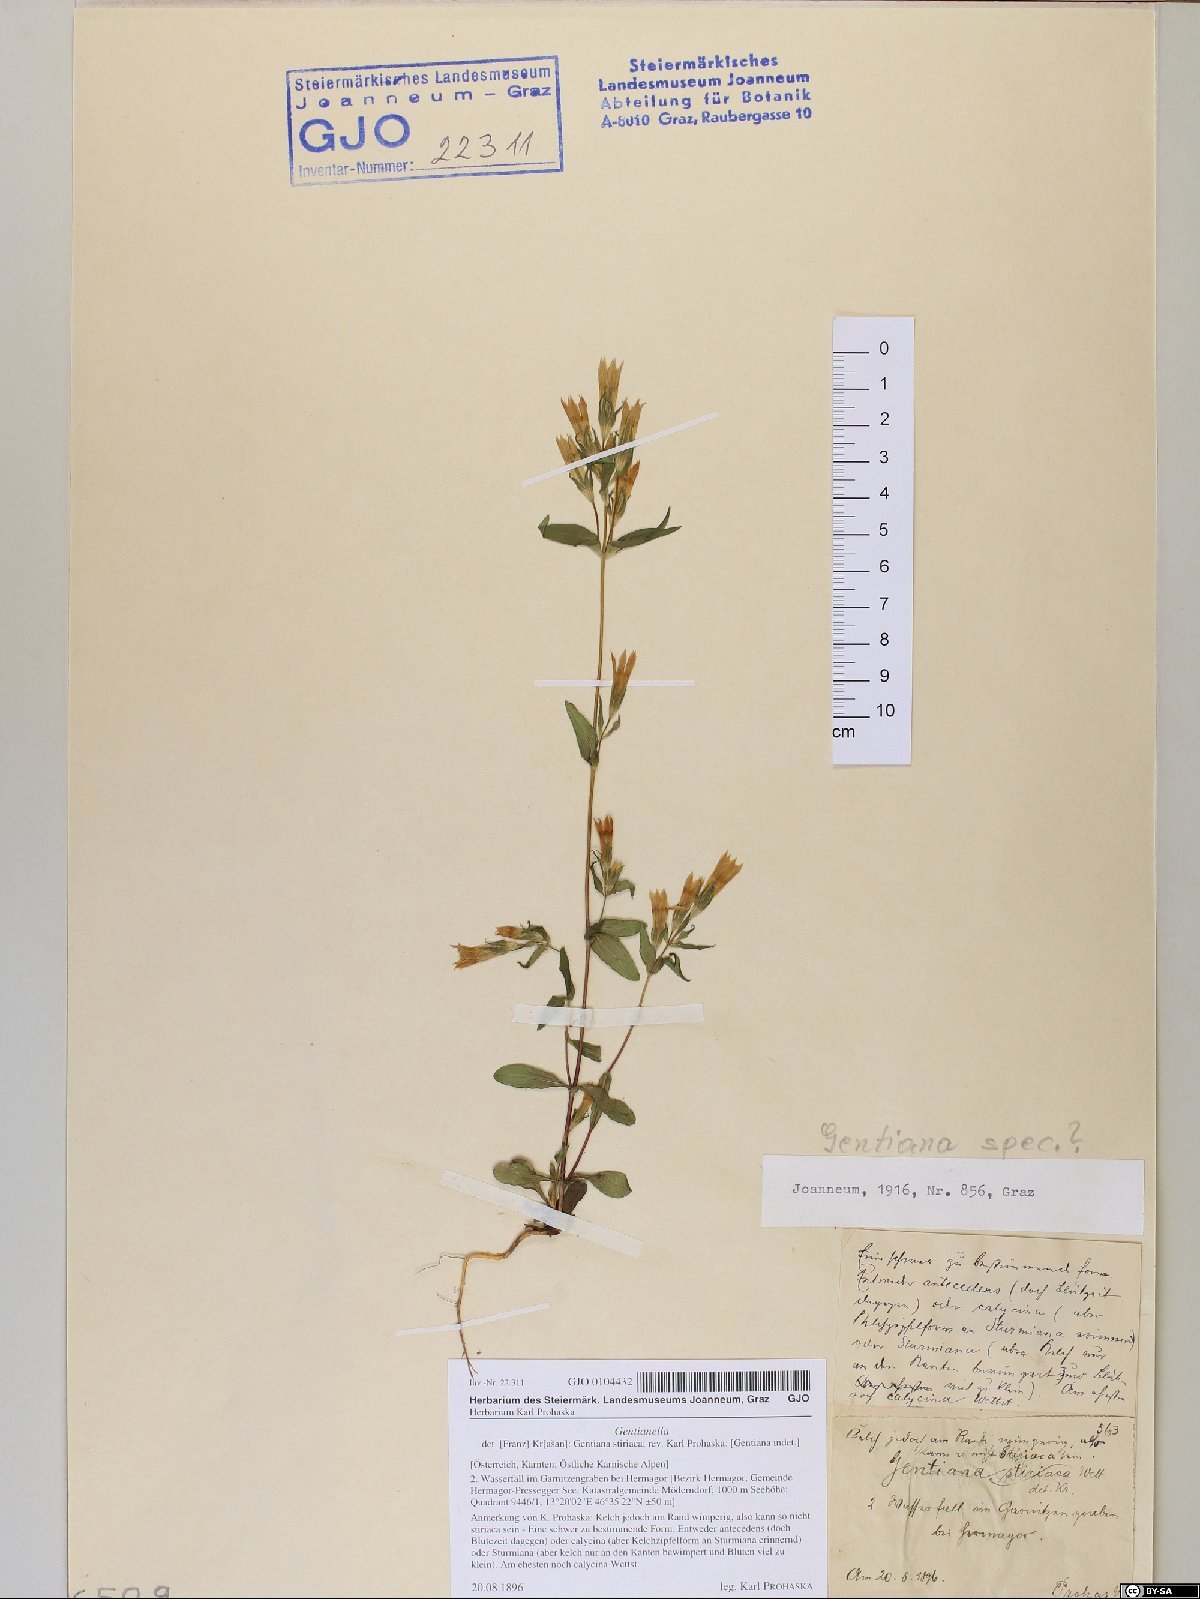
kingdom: Plantae
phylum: Tracheophyta
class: Magnoliopsida
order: Gentianales
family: Gentianaceae
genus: Gentianella
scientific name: Gentianella
